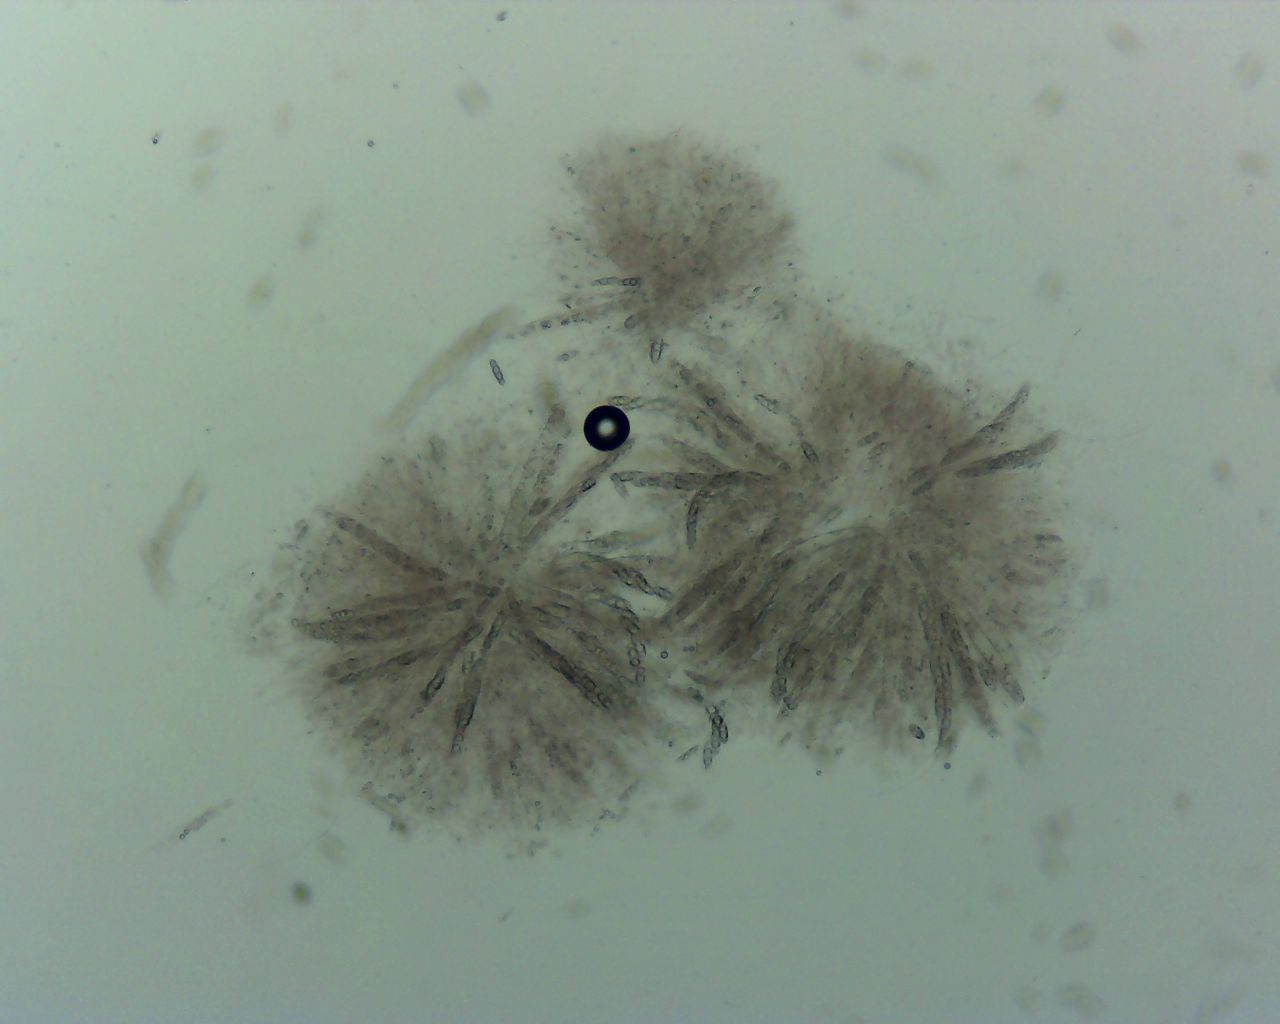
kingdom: Fungi
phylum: Ascomycota
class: Sordariomycetes
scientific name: Sordariomycetes
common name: kernesvampklassen
